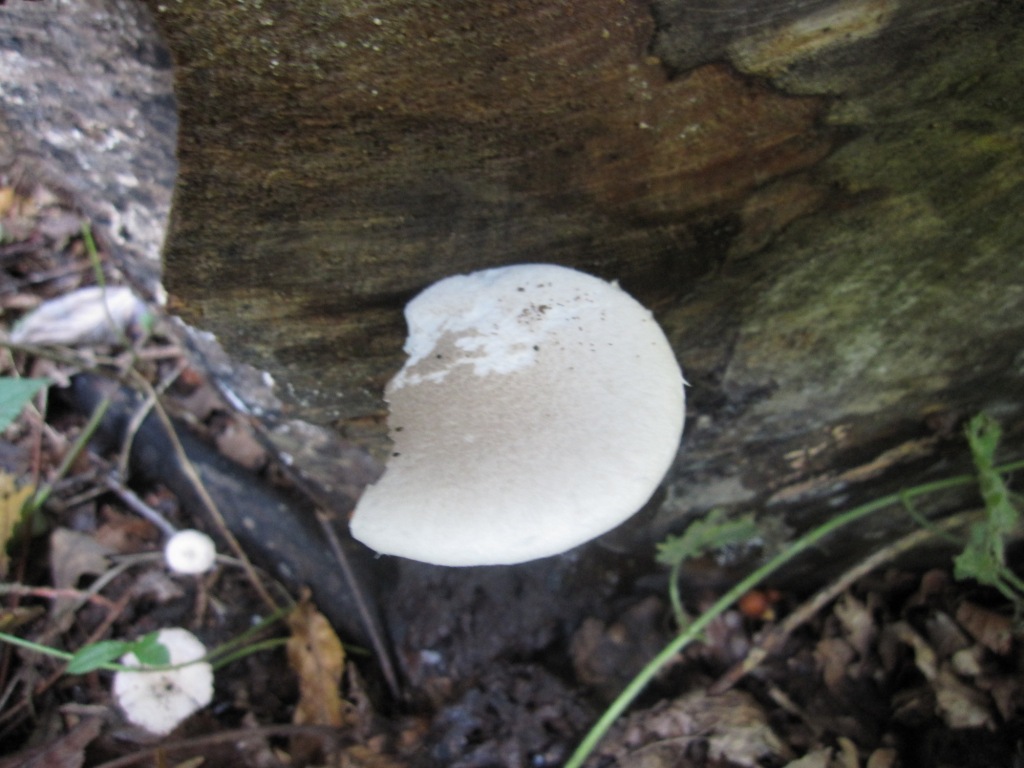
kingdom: Fungi
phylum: Basidiomycota
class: Agaricomycetes
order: Agaricales
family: Pleurotaceae
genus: Pleurotus
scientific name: Pleurotus dryinus
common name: korkagtig østershat
